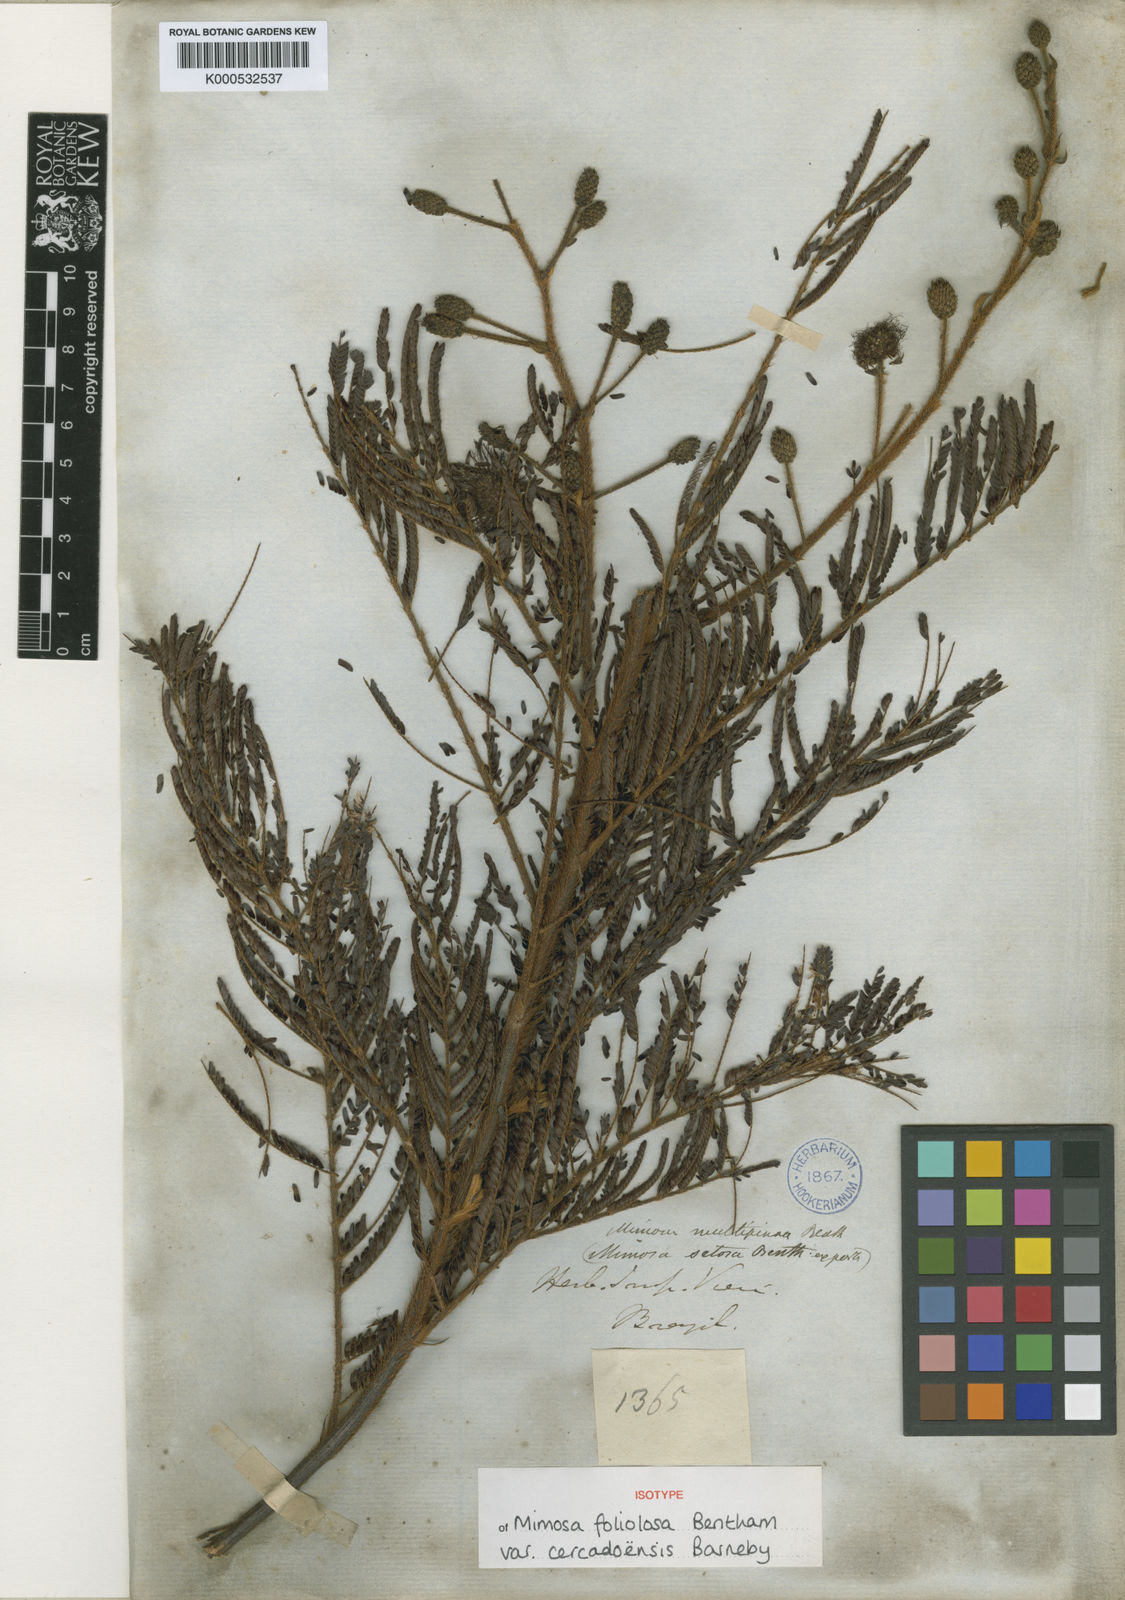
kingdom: Plantae
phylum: Tracheophyta
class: Magnoliopsida
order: Fabales
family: Fabaceae
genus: Mimosa
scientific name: Mimosa foliolosa
